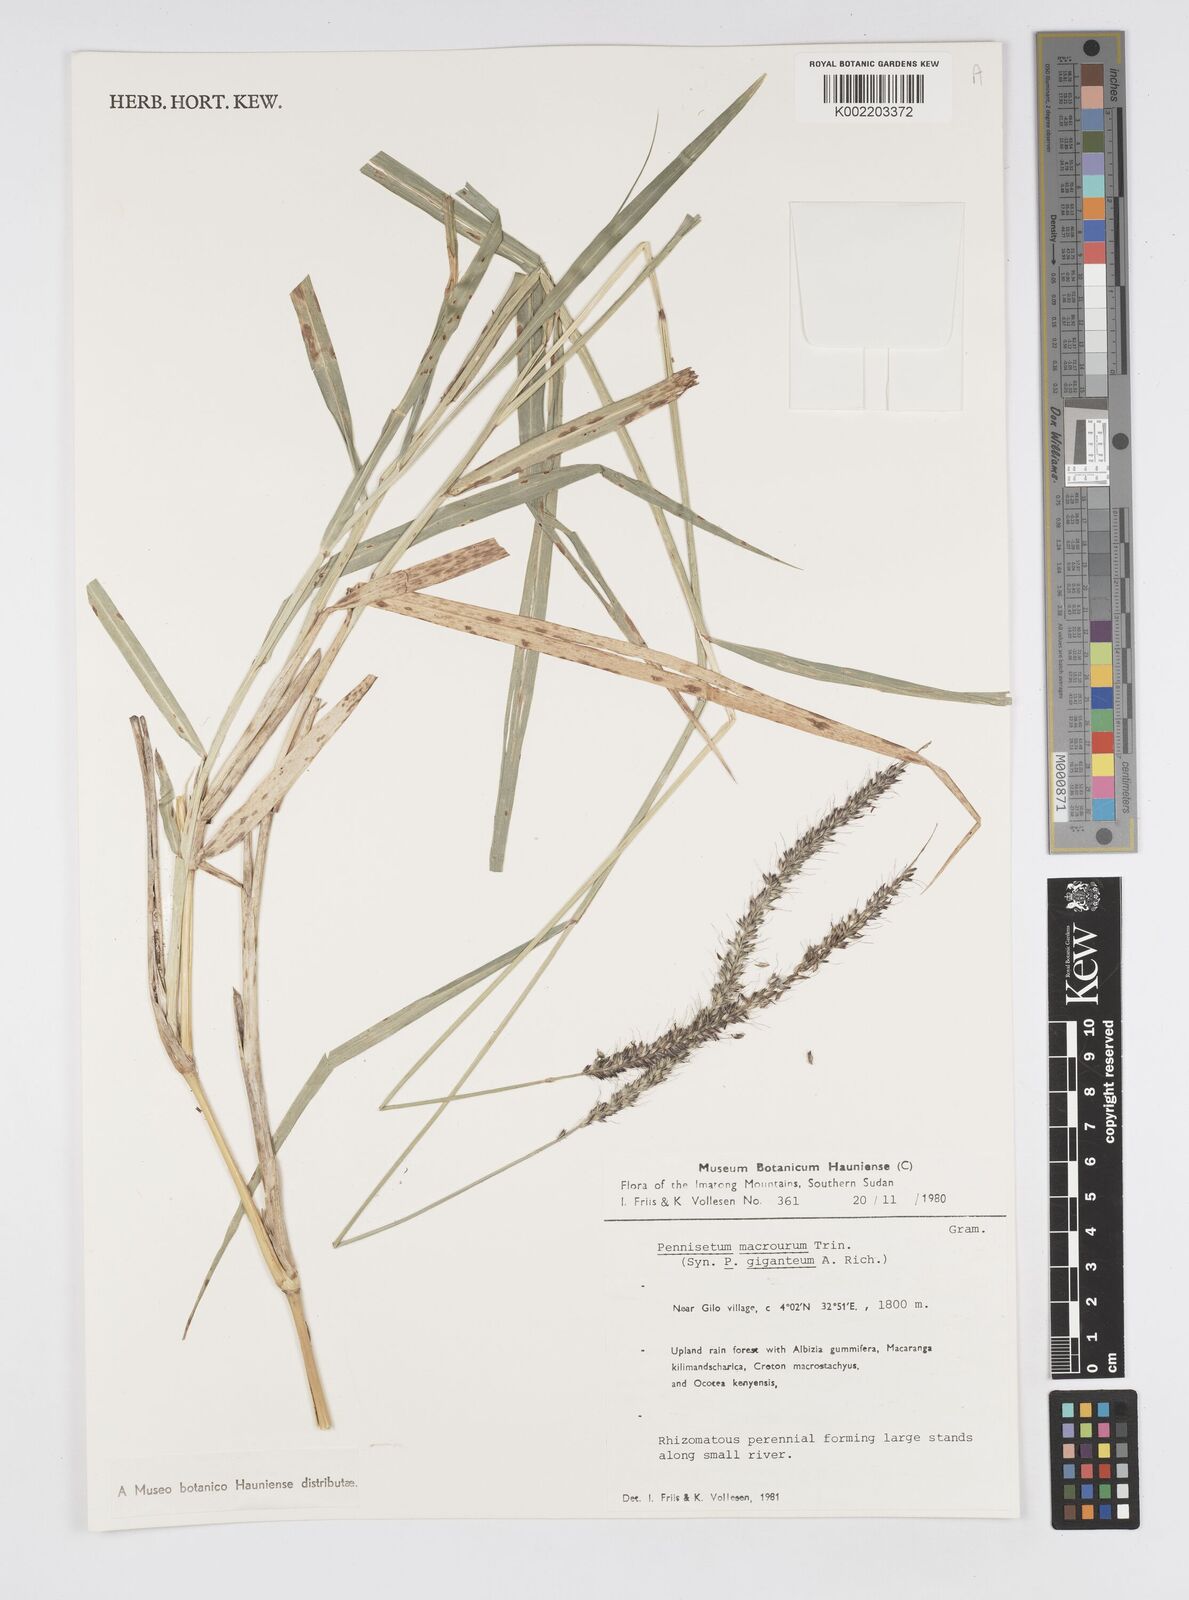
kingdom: Plantae
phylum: Tracheophyta
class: Liliopsida
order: Poales
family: Poaceae
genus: Cenchrus
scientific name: Cenchrus caudatus
